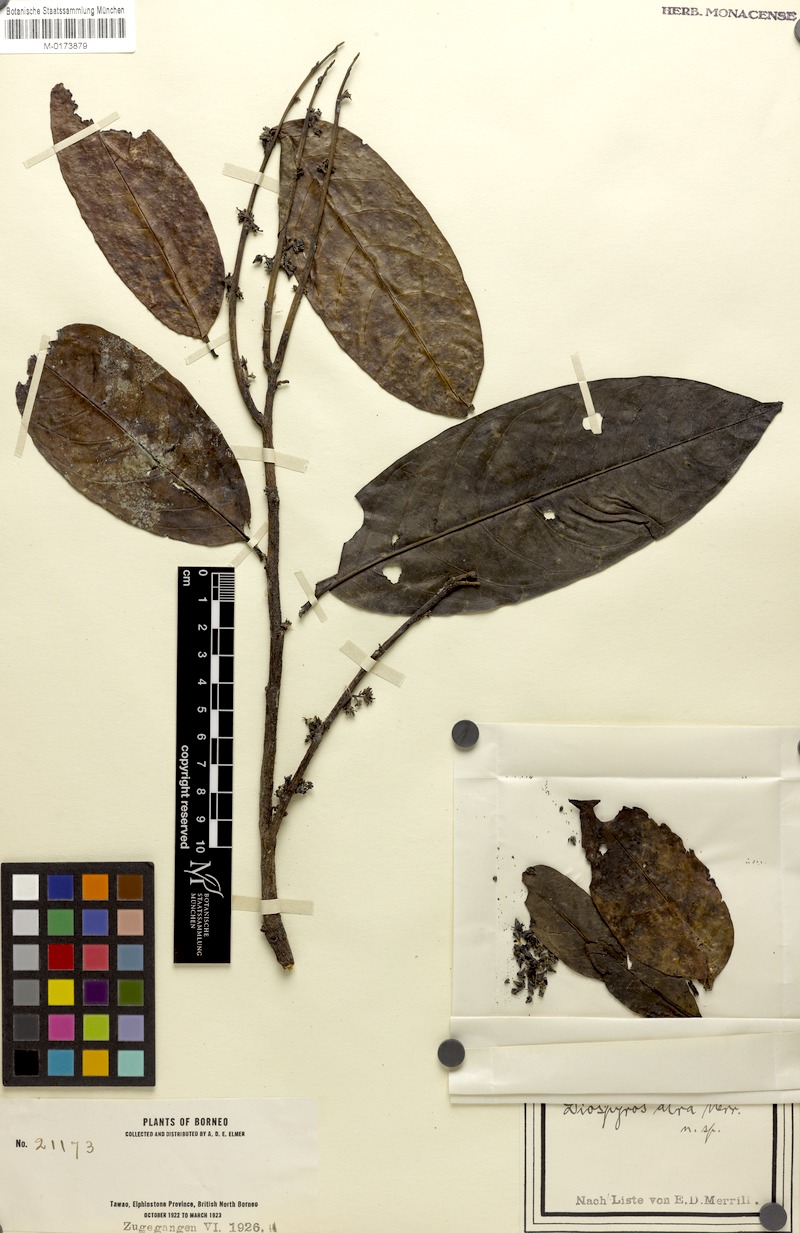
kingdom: Plantae
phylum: Tracheophyta
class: Magnoliopsida
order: Ericales
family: Ebenaceae
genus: Diospyros
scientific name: Diospyros frutescens
